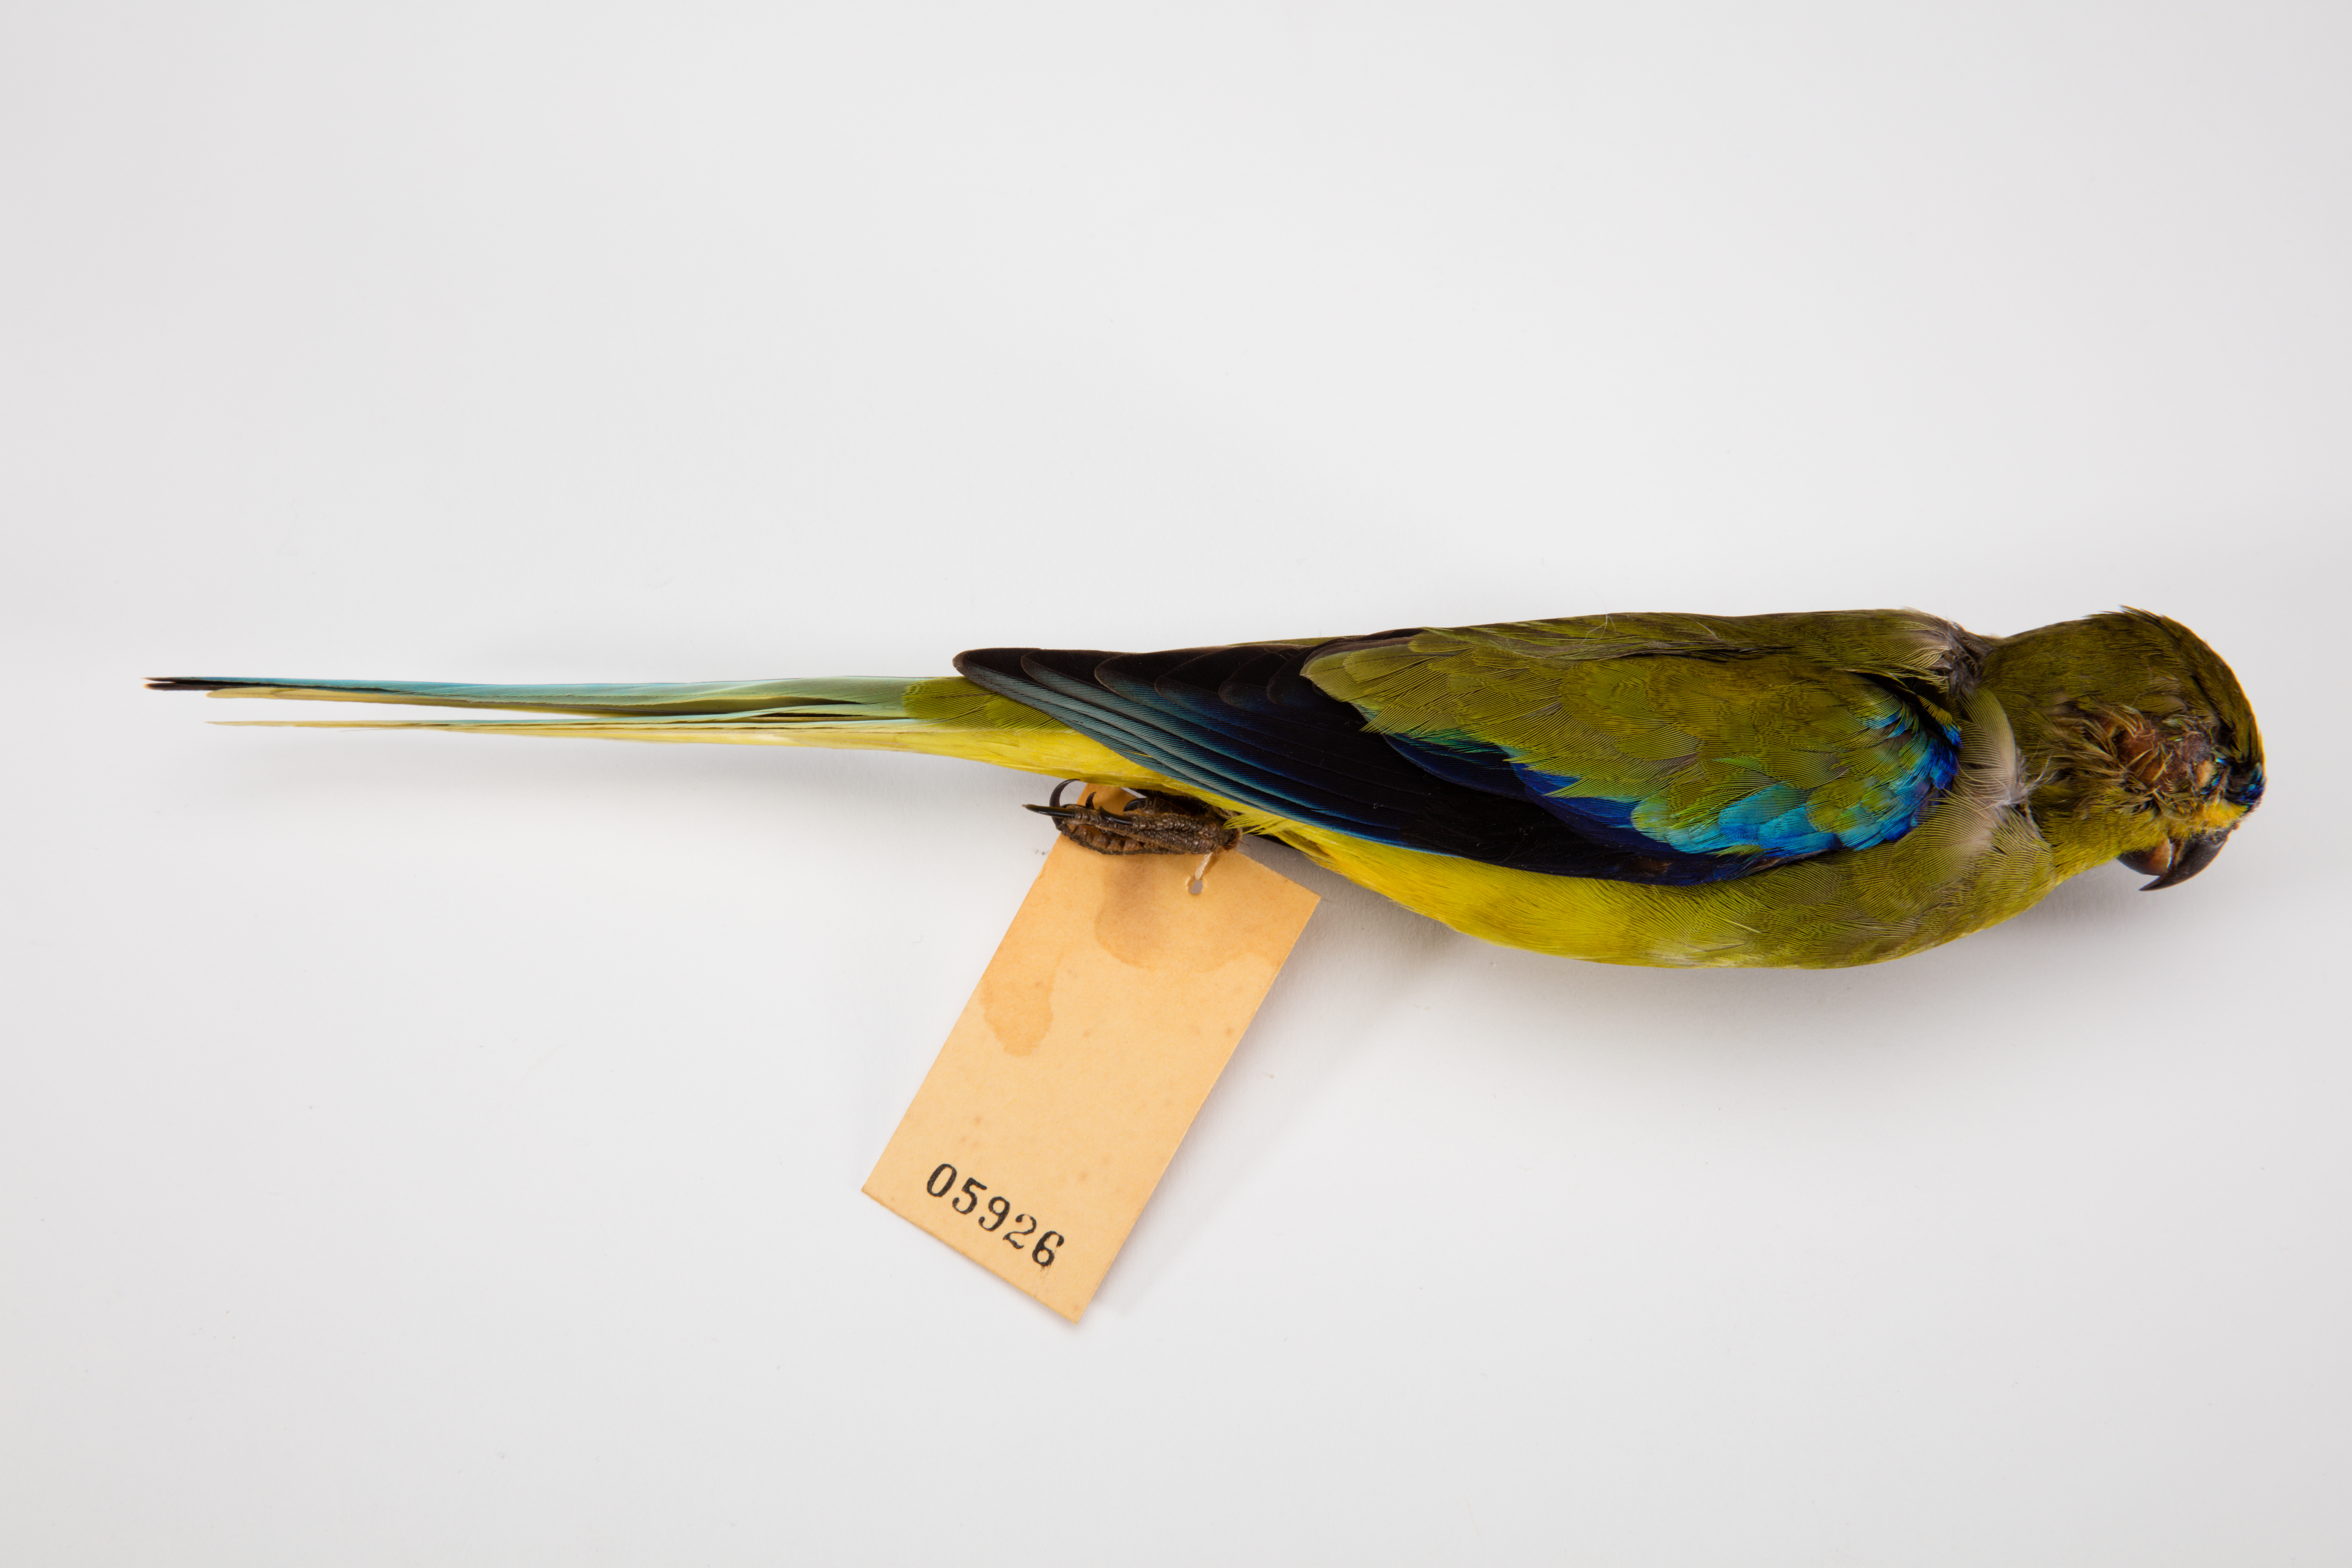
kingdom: Animalia
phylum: Chordata
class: Aves
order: Psittaciformes
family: Psittacidae
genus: Neophema
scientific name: Neophema elegans
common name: Elegant parrot
